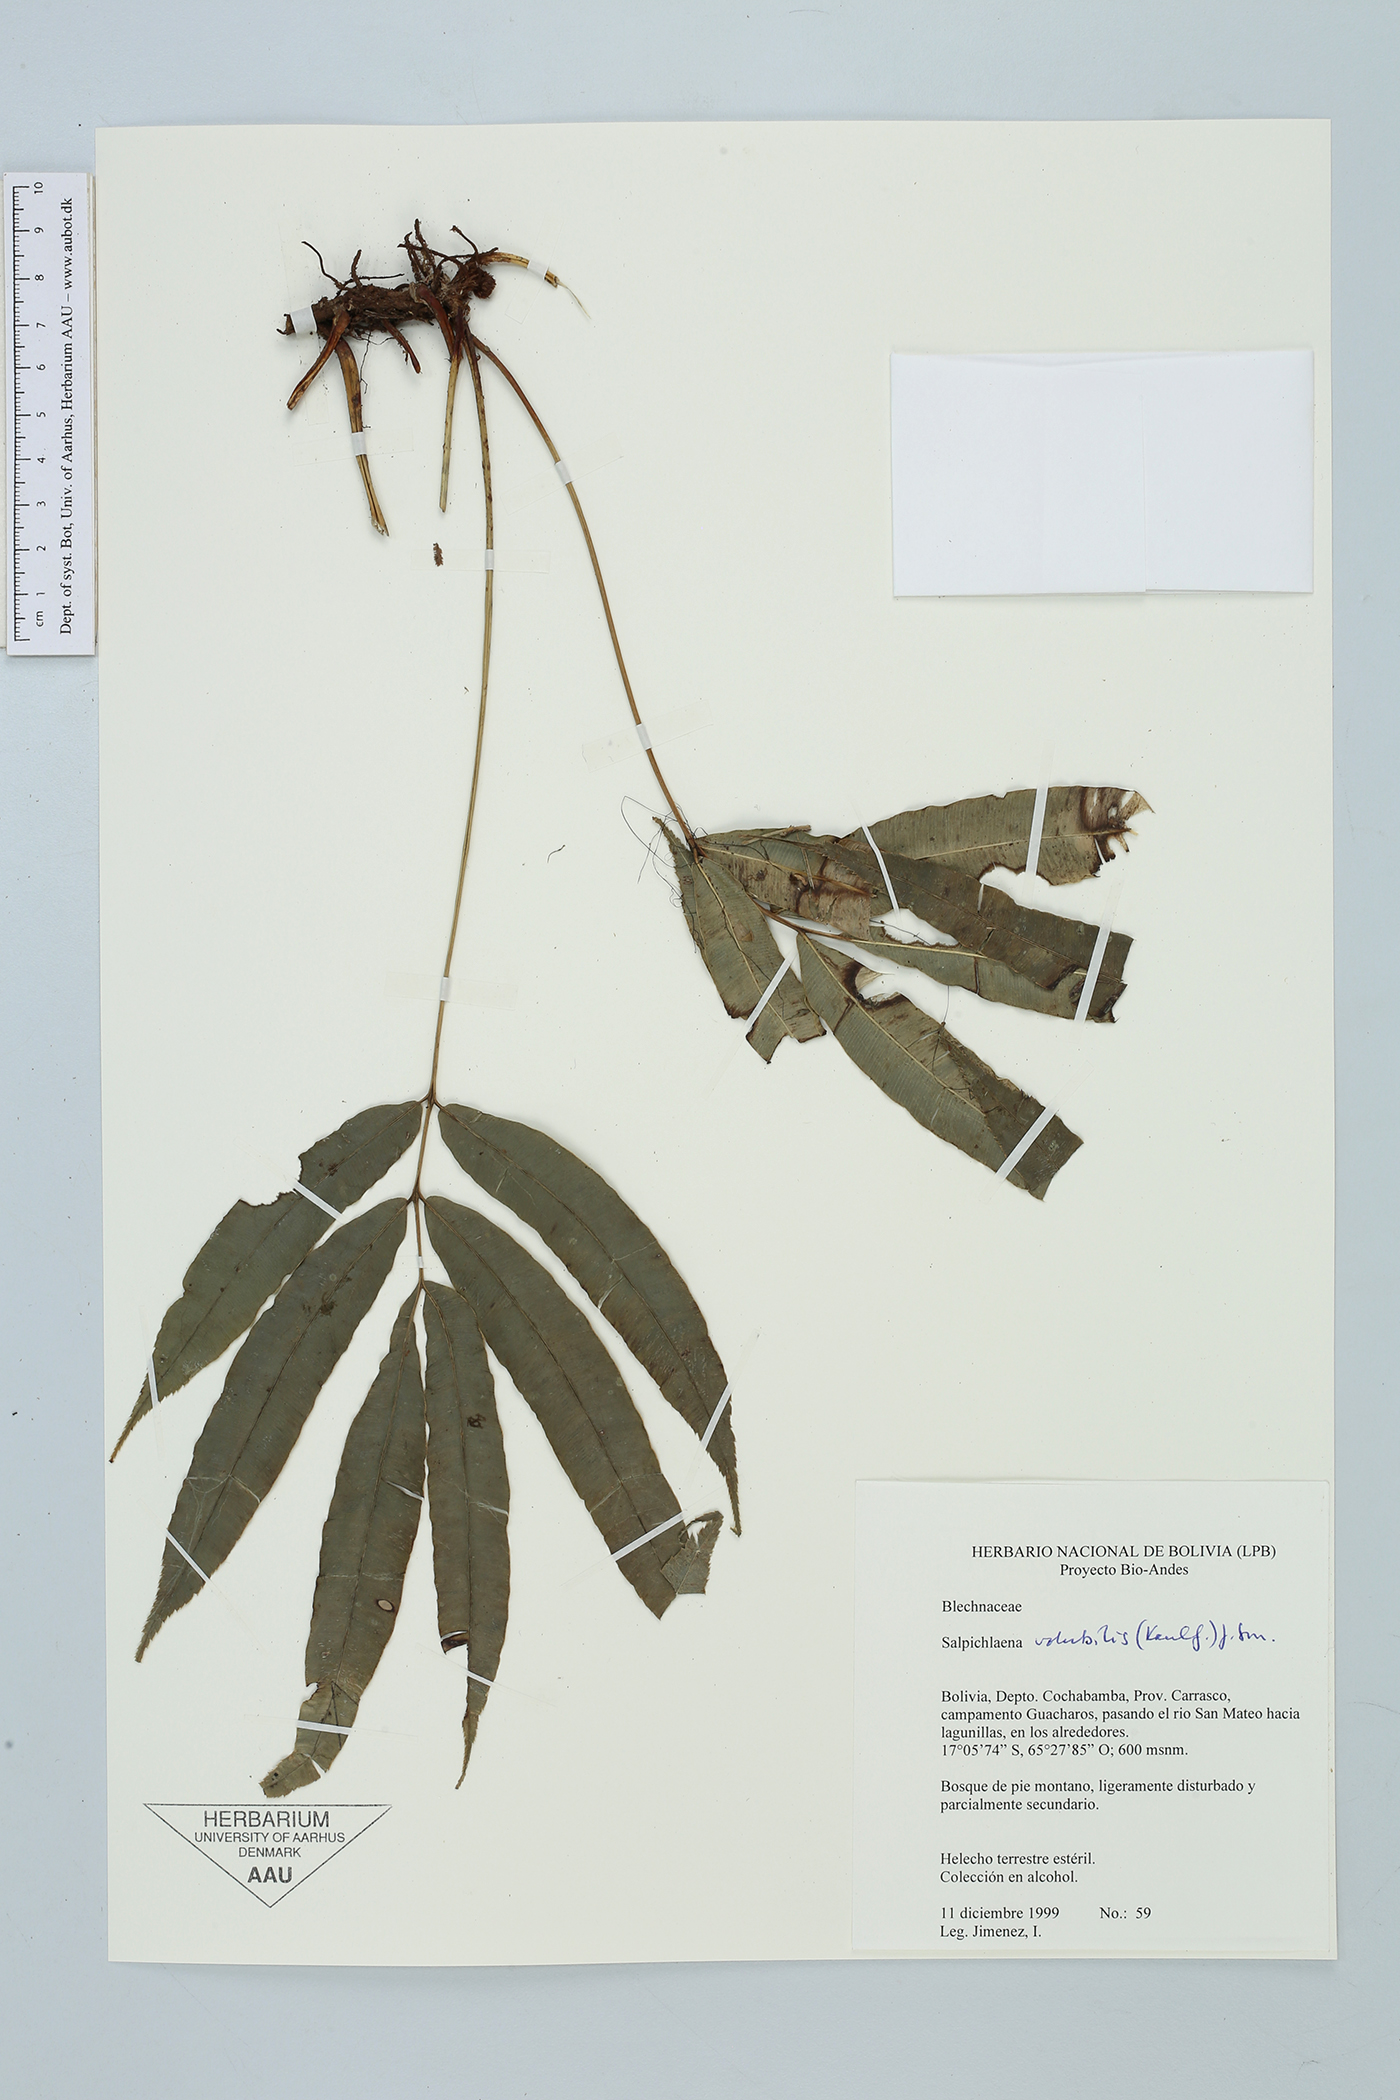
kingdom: Plantae
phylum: Tracheophyta
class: Polypodiopsida
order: Polypodiales
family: Blechnaceae
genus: Salpichlaena
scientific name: Salpichlaena hookeriana
